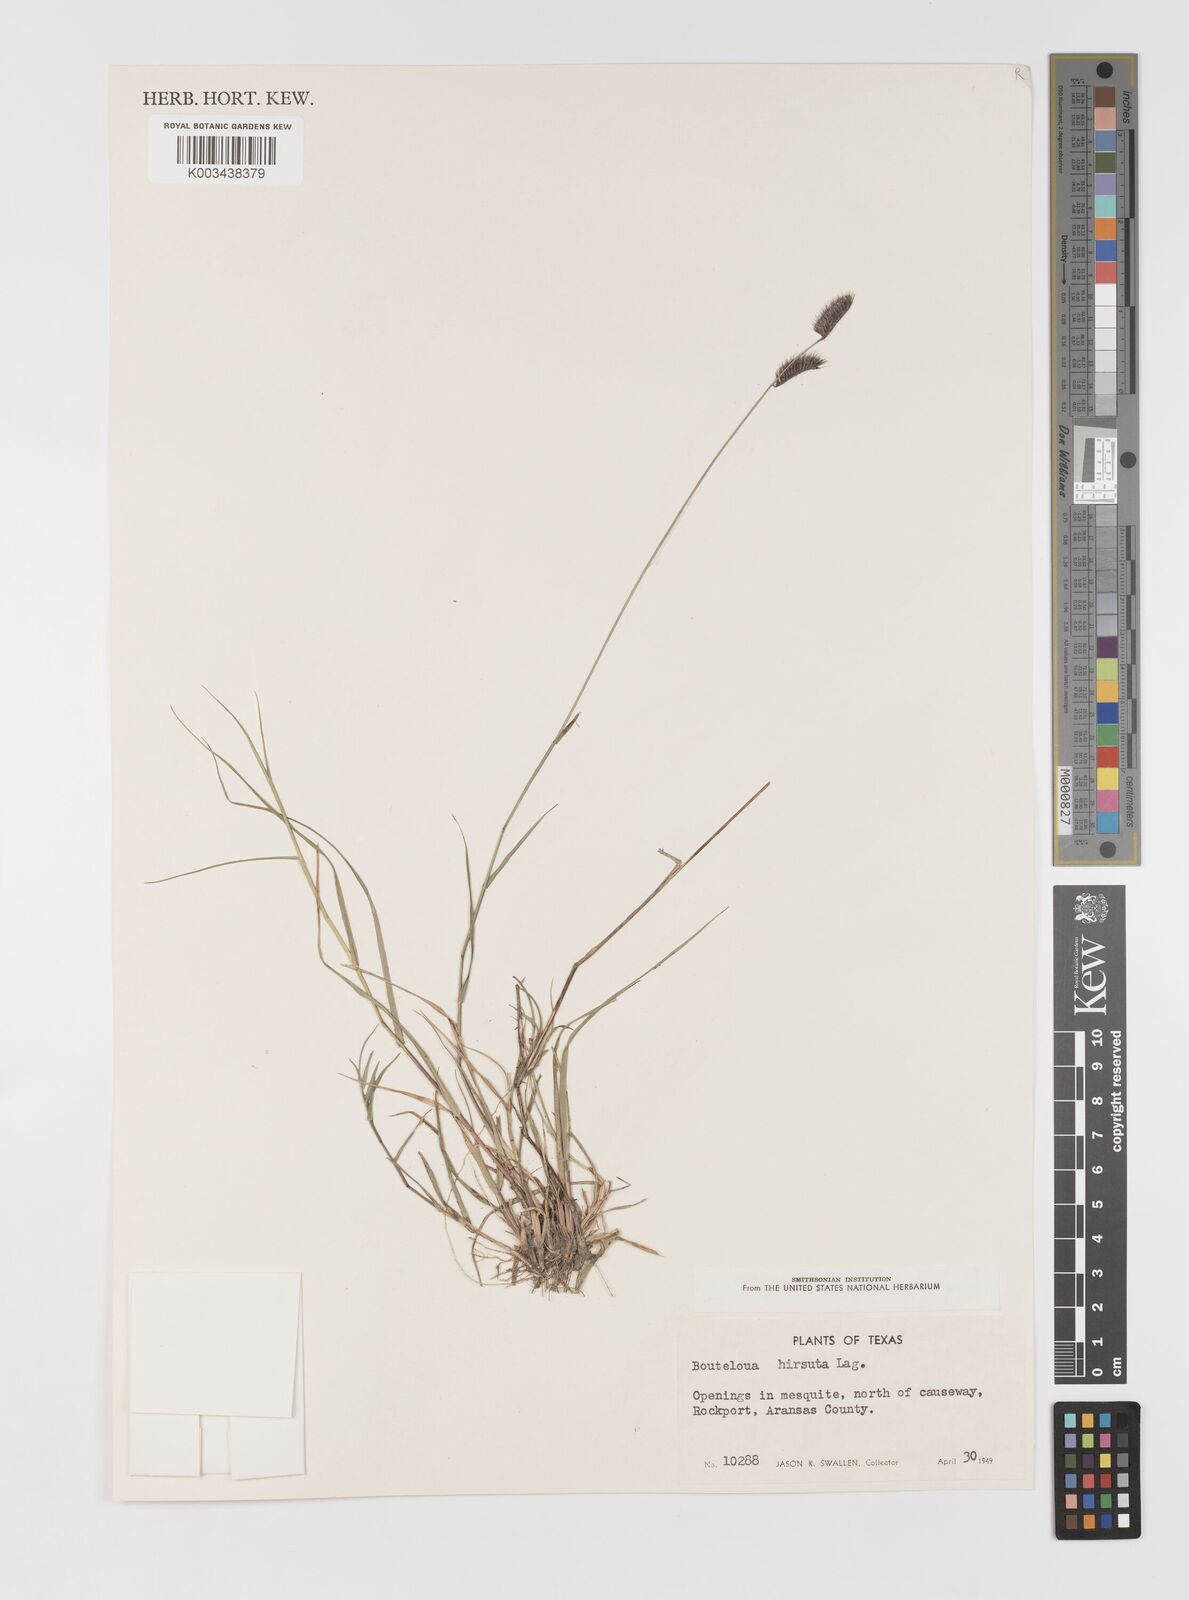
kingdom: Plantae
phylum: Tracheophyta
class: Liliopsida
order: Poales
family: Poaceae
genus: Bouteloua
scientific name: Bouteloua hirsuta
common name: Hairy grama
